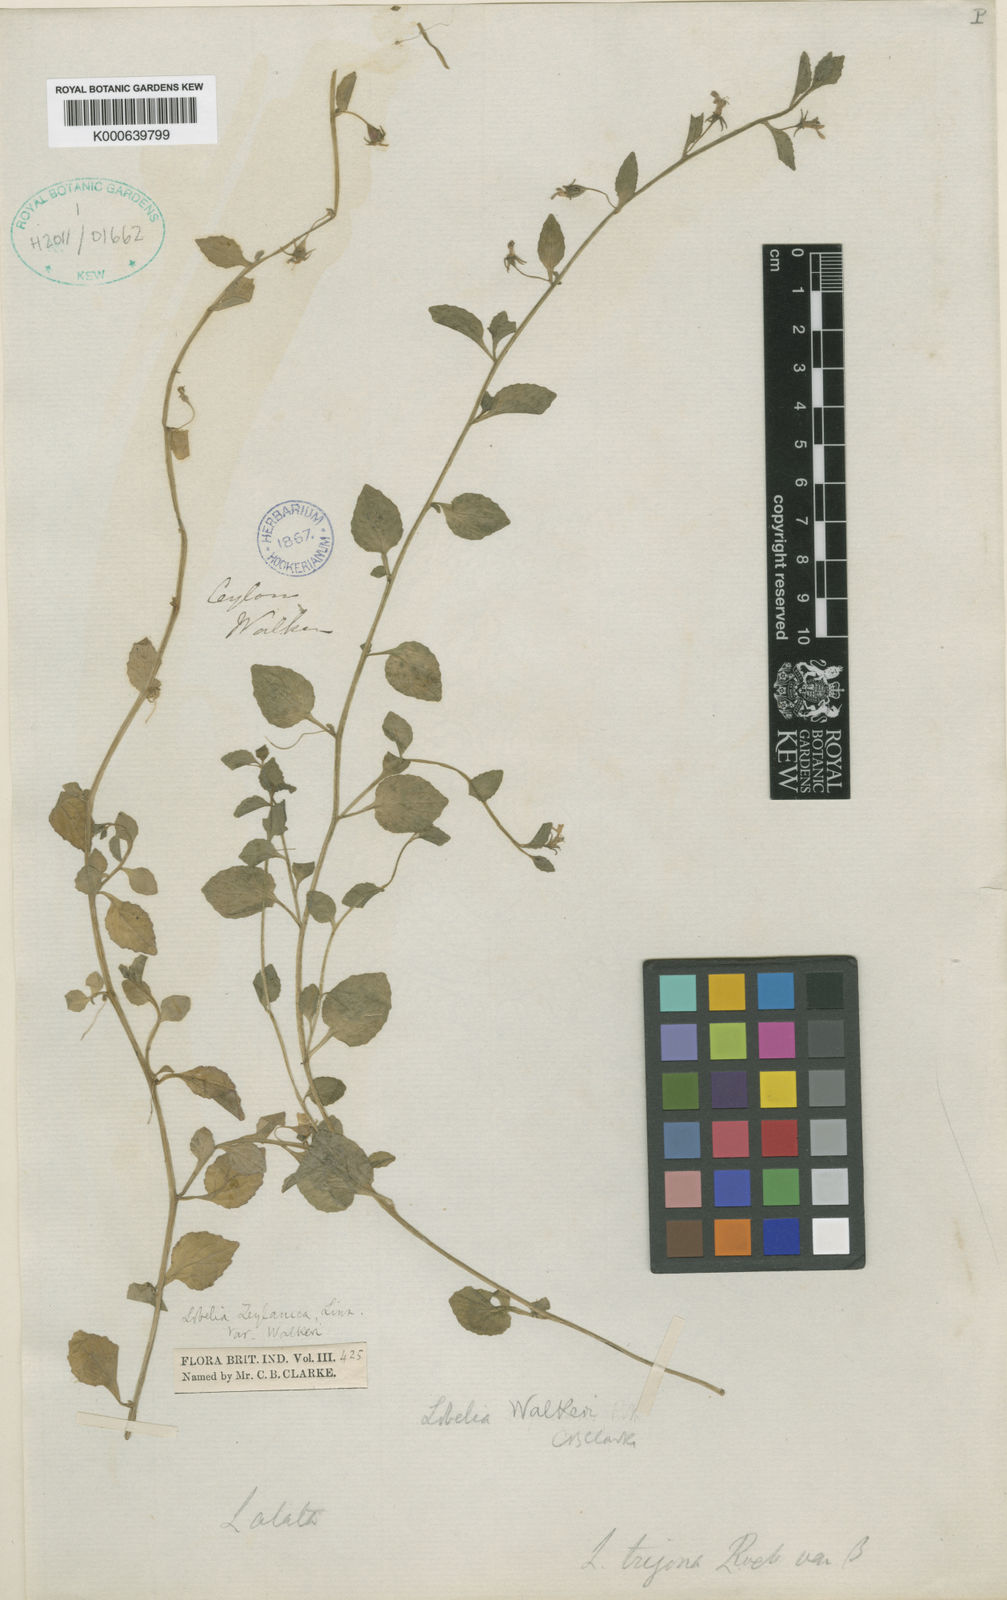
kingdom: Plantae
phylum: Tracheophyta
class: Magnoliopsida
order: Asterales
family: Campanulaceae
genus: Lobelia
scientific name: Lobelia walkeri
